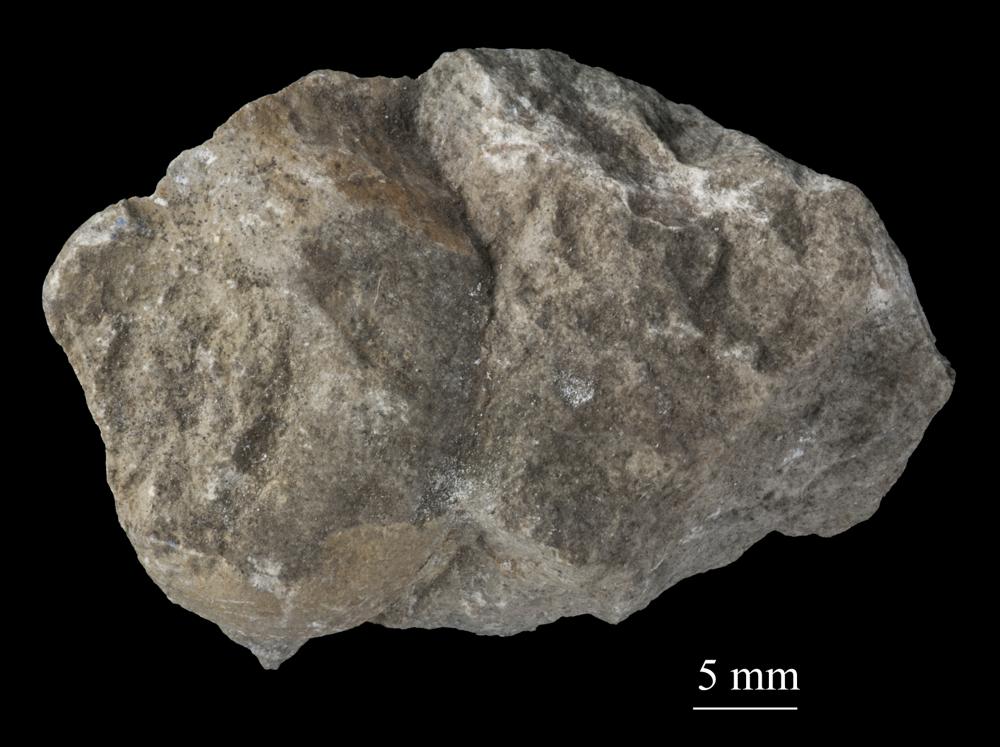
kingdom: Animalia
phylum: Mollusca
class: Gastropoda
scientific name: Gastropoda
